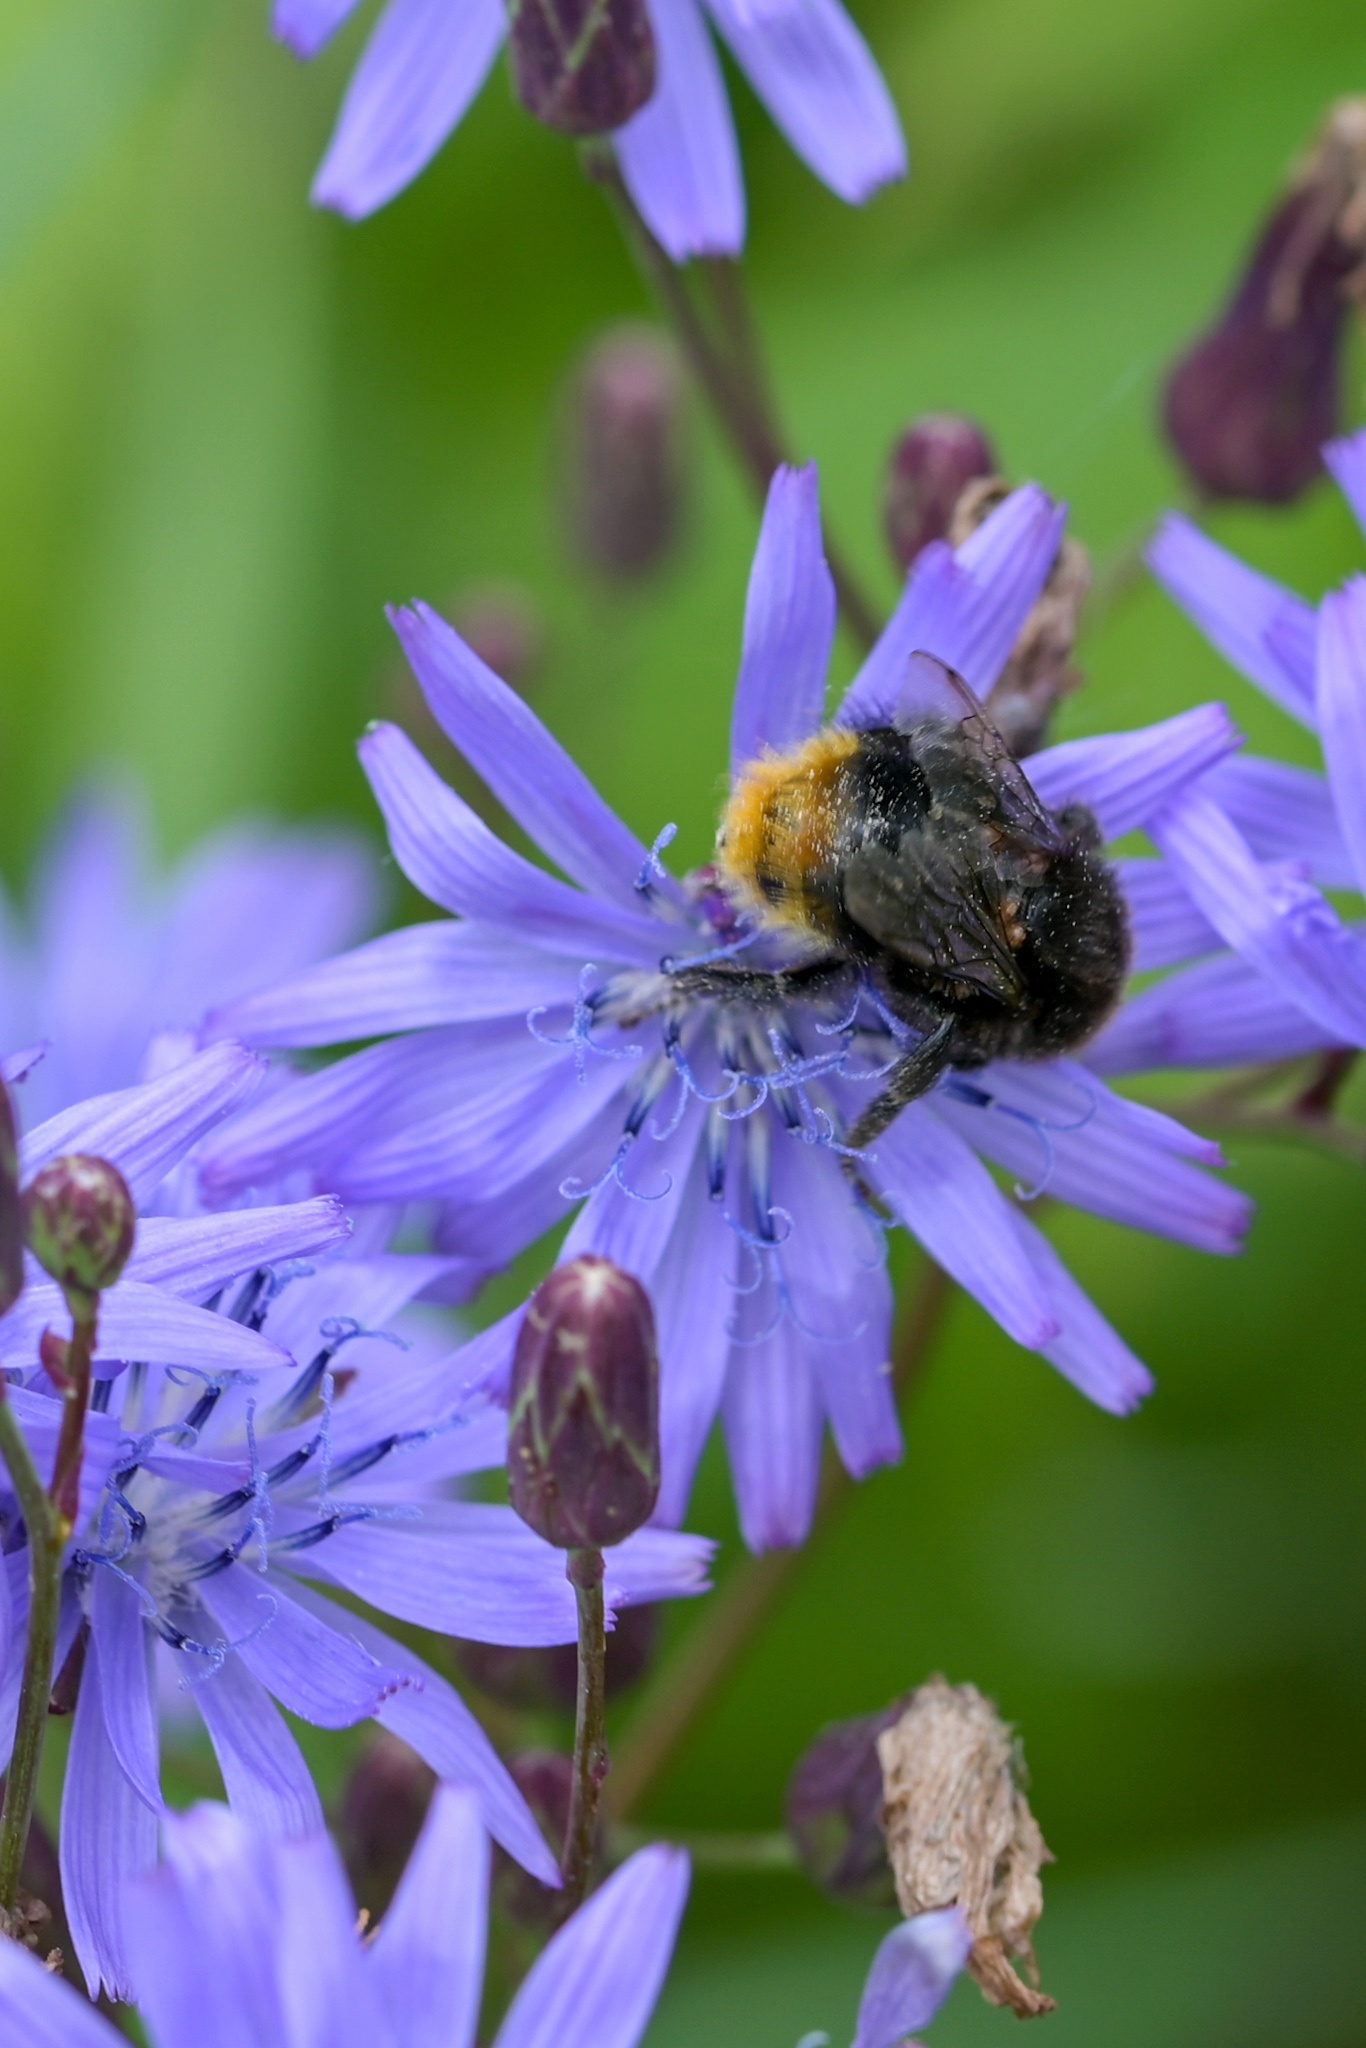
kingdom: Plantae
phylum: Tracheophyta
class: Magnoliopsida
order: Asterales
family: Asteraceae
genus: Lactuca
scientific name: Lactuca sibirica
